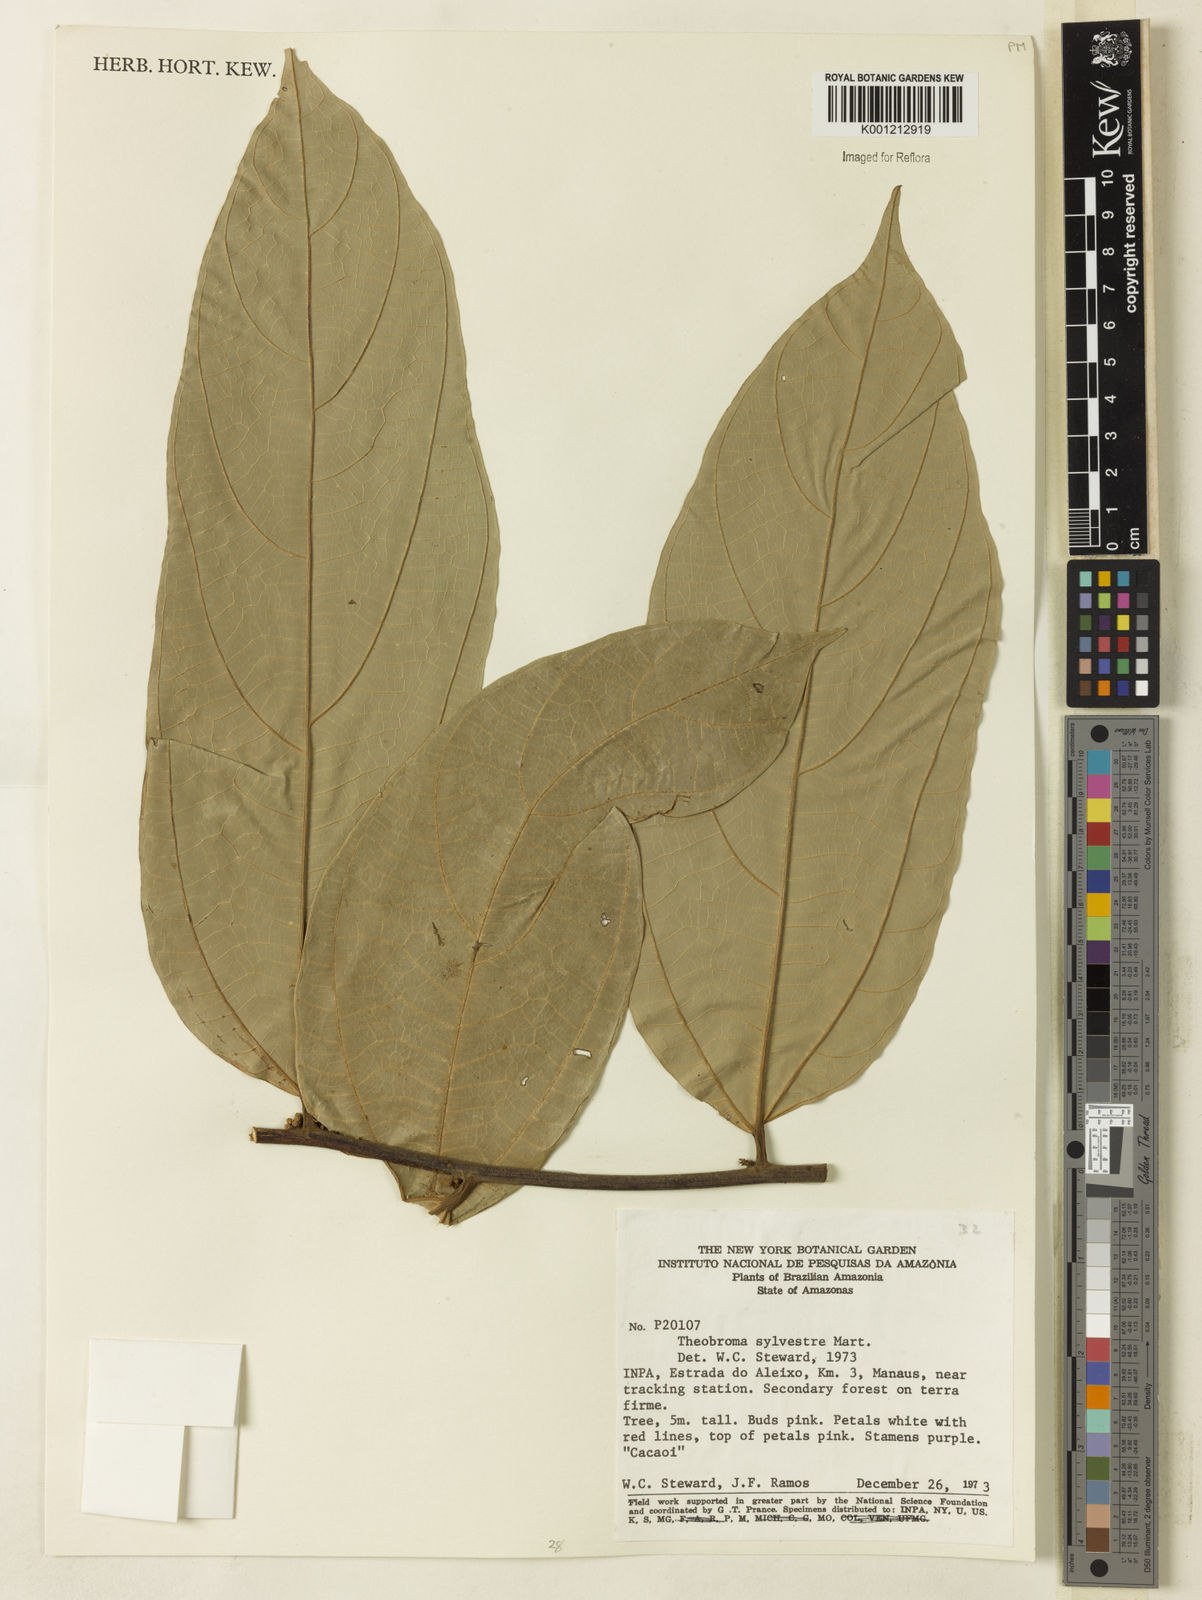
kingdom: Plantae
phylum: Tracheophyta
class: Magnoliopsida
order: Malvales
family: Malvaceae
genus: Theobroma
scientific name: Theobroma sylvestre
